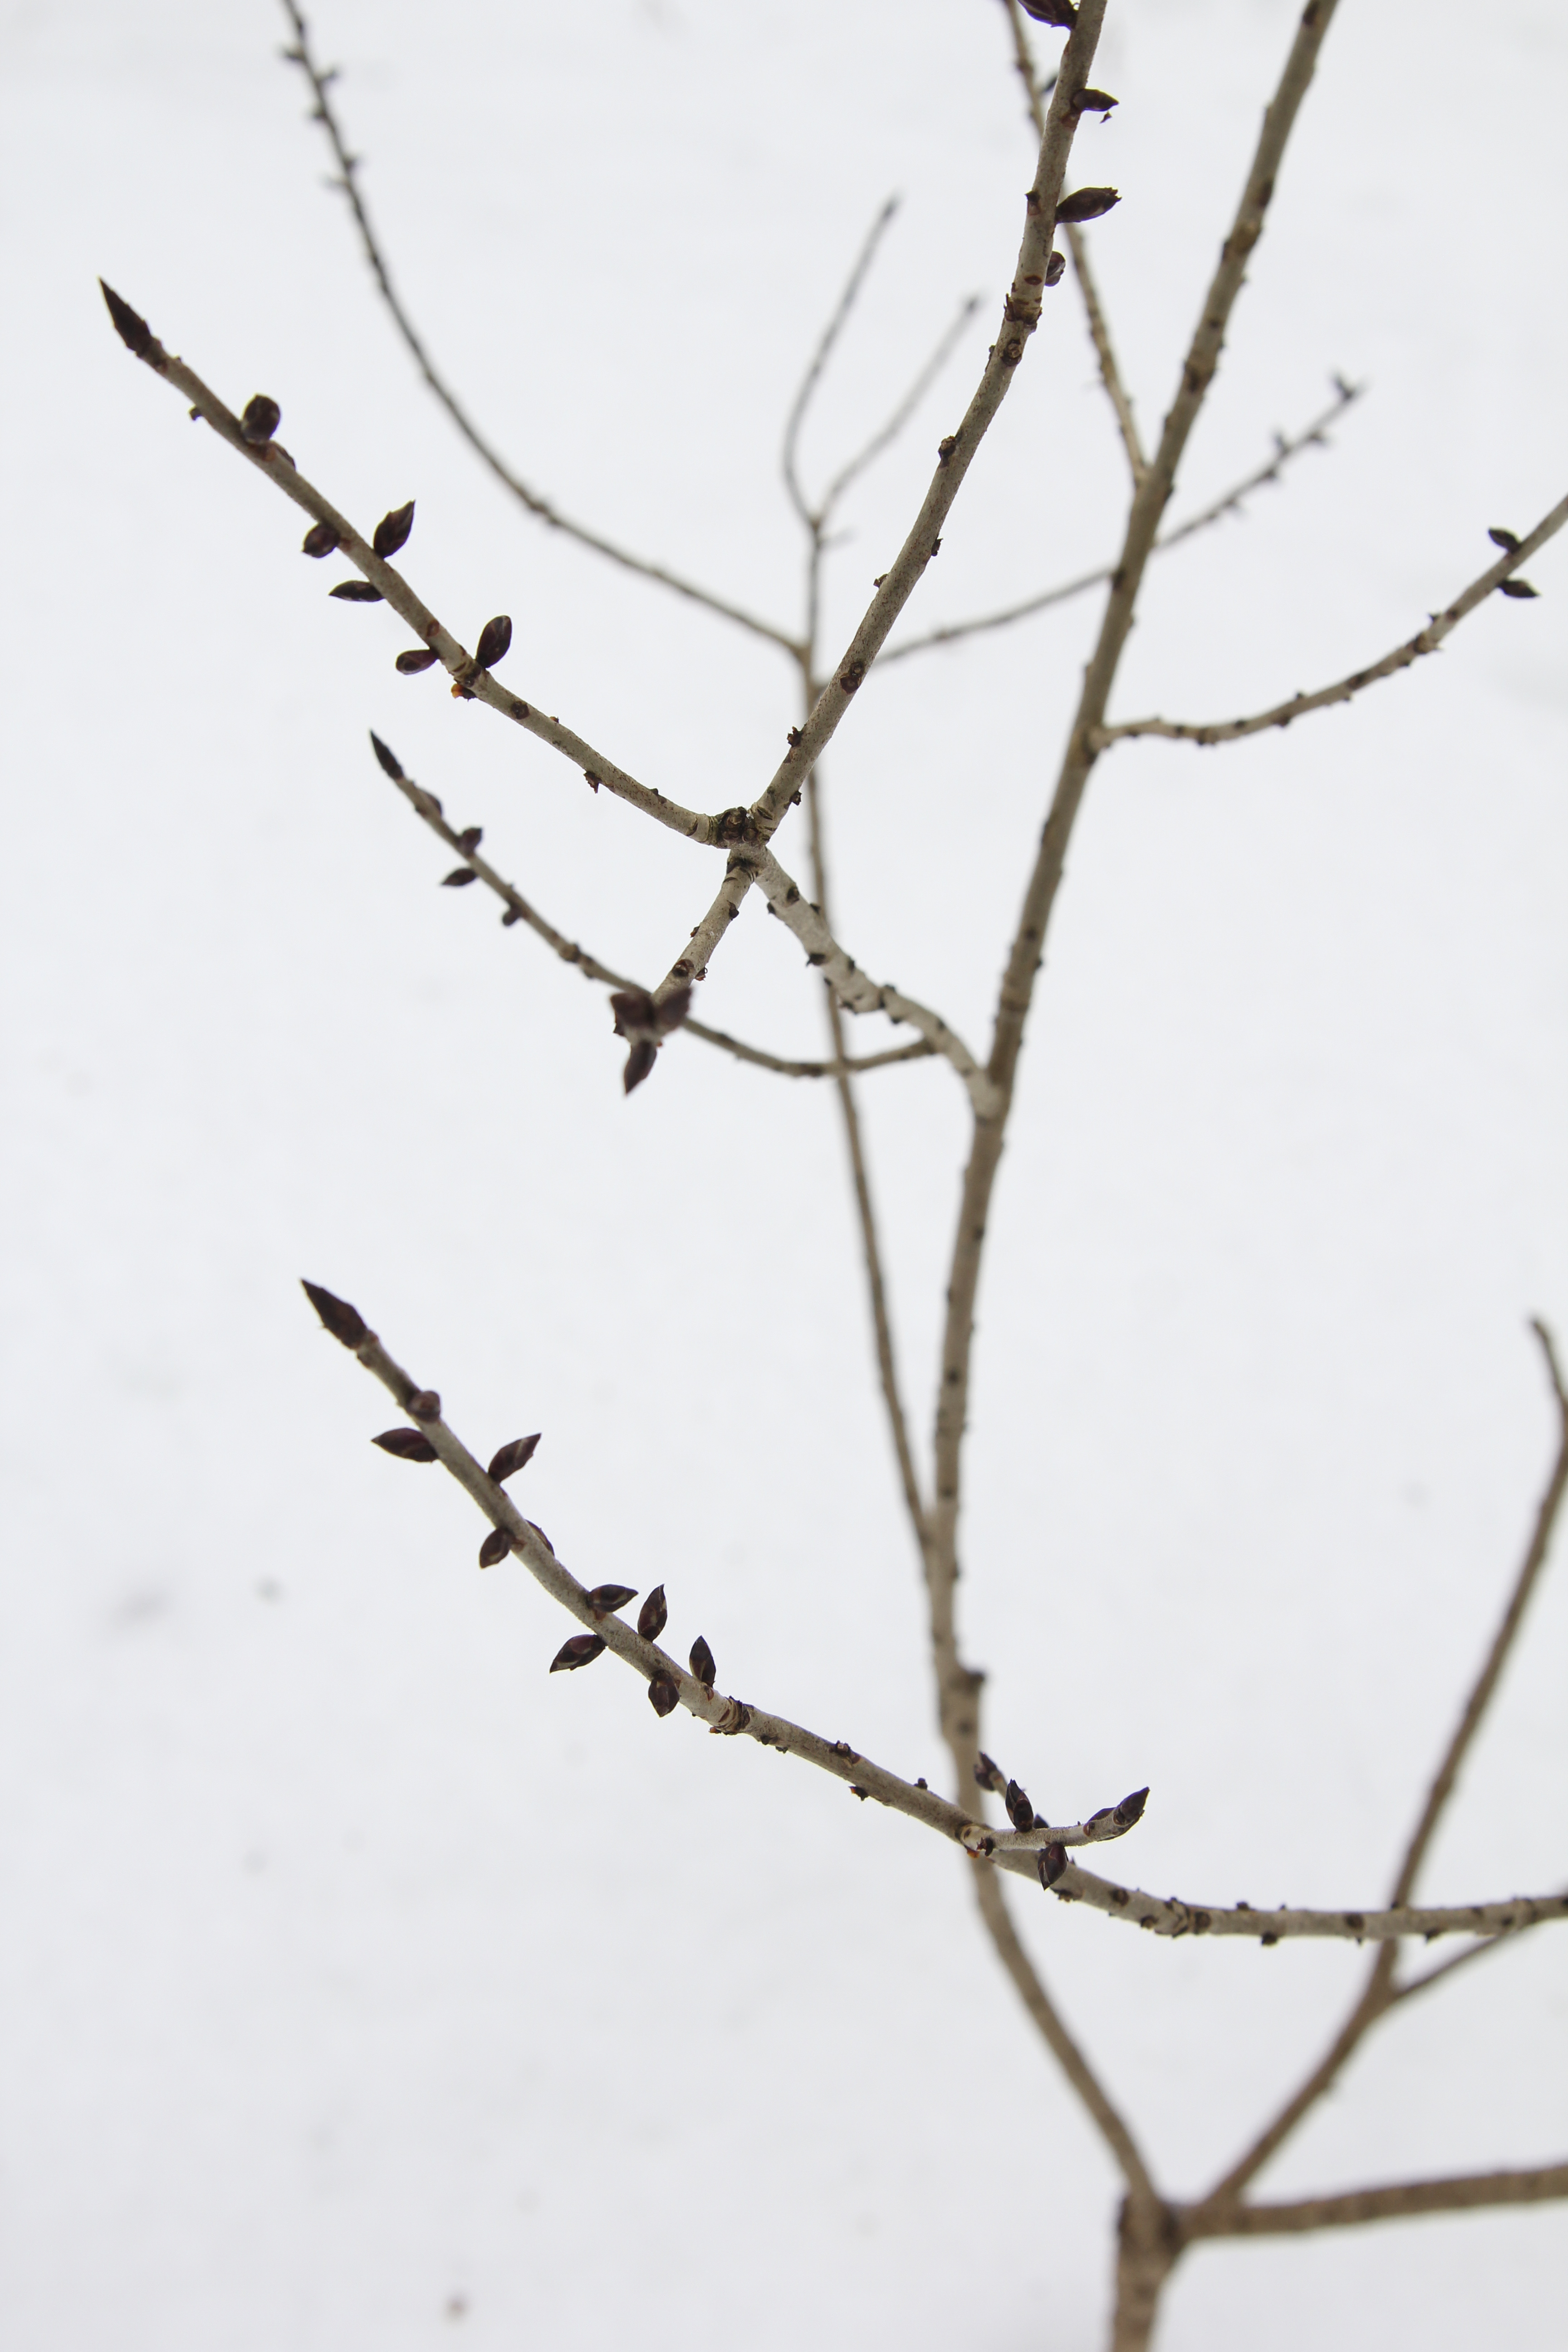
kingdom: Plantae
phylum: Tracheophyta
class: Magnoliopsida
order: Malvales
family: Thymelaeaceae
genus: Daphne
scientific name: Daphne mezereum
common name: Mezereon
